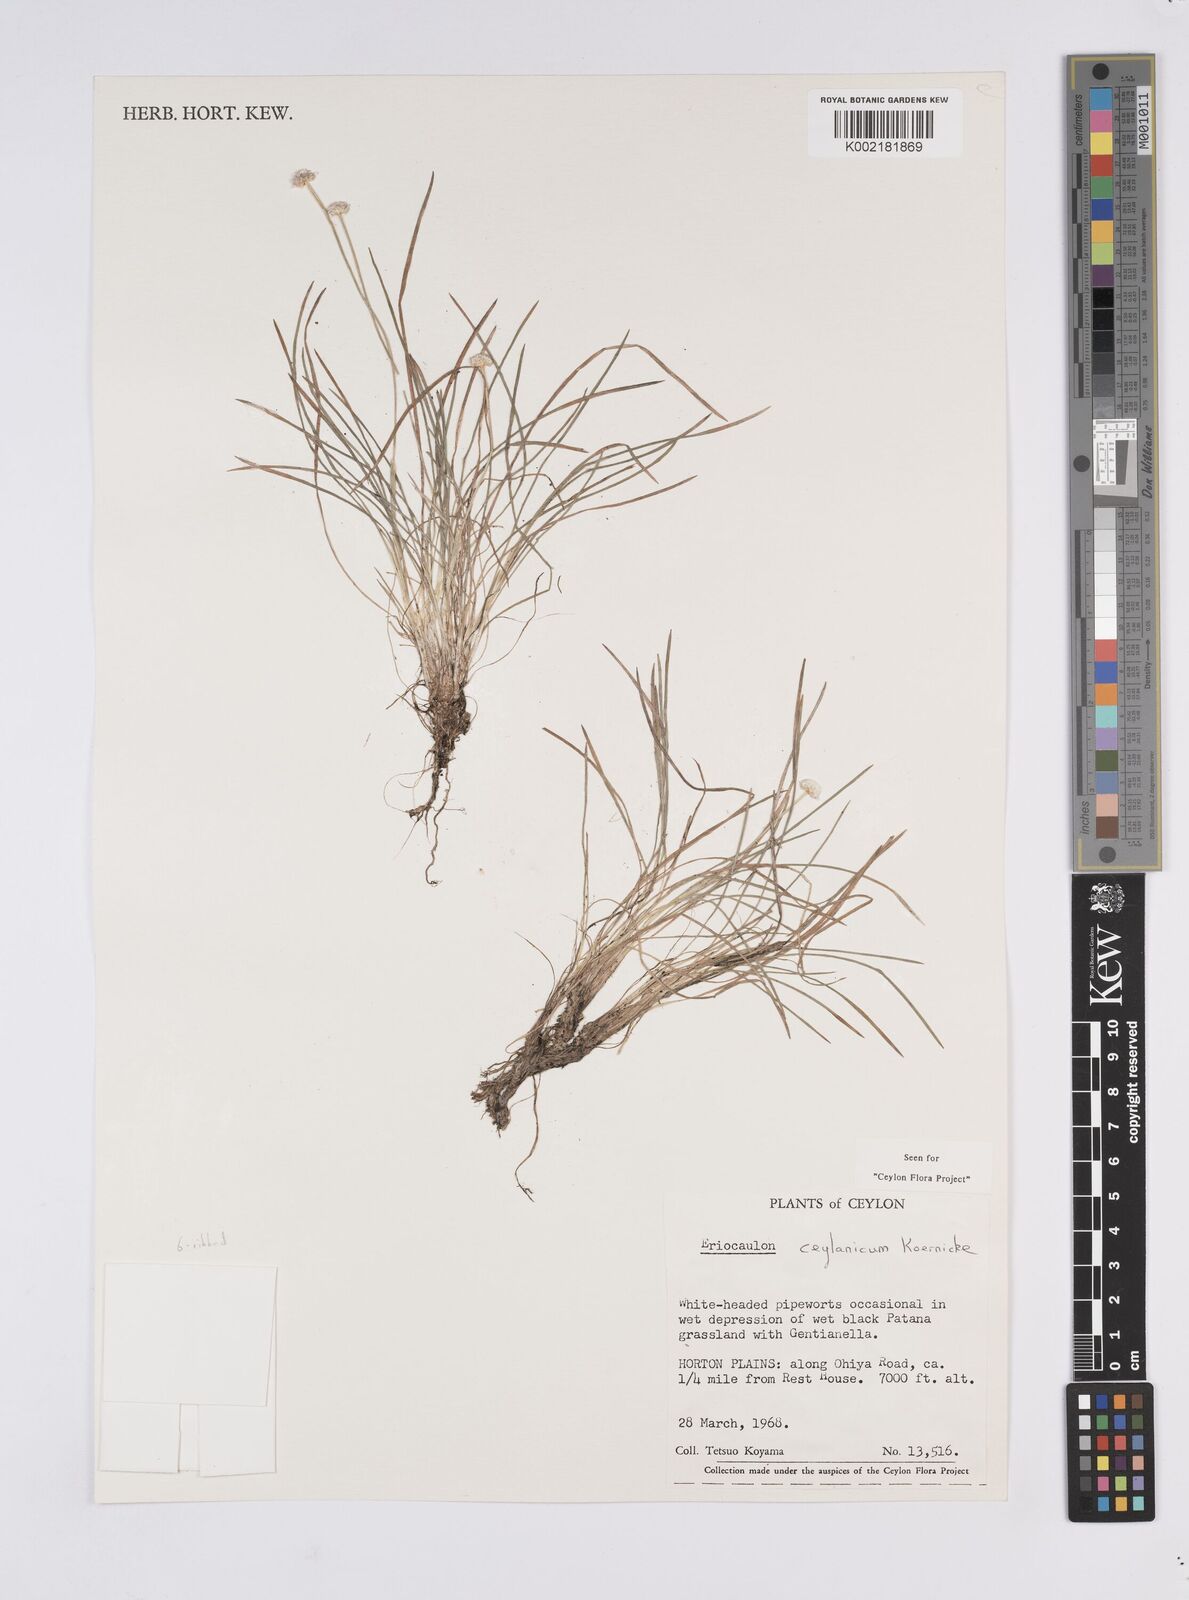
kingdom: Plantae
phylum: Tracheophyta
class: Liliopsida
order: Poales
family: Eriocaulaceae
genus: Eriocaulon
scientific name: Eriocaulon ceylanicum
